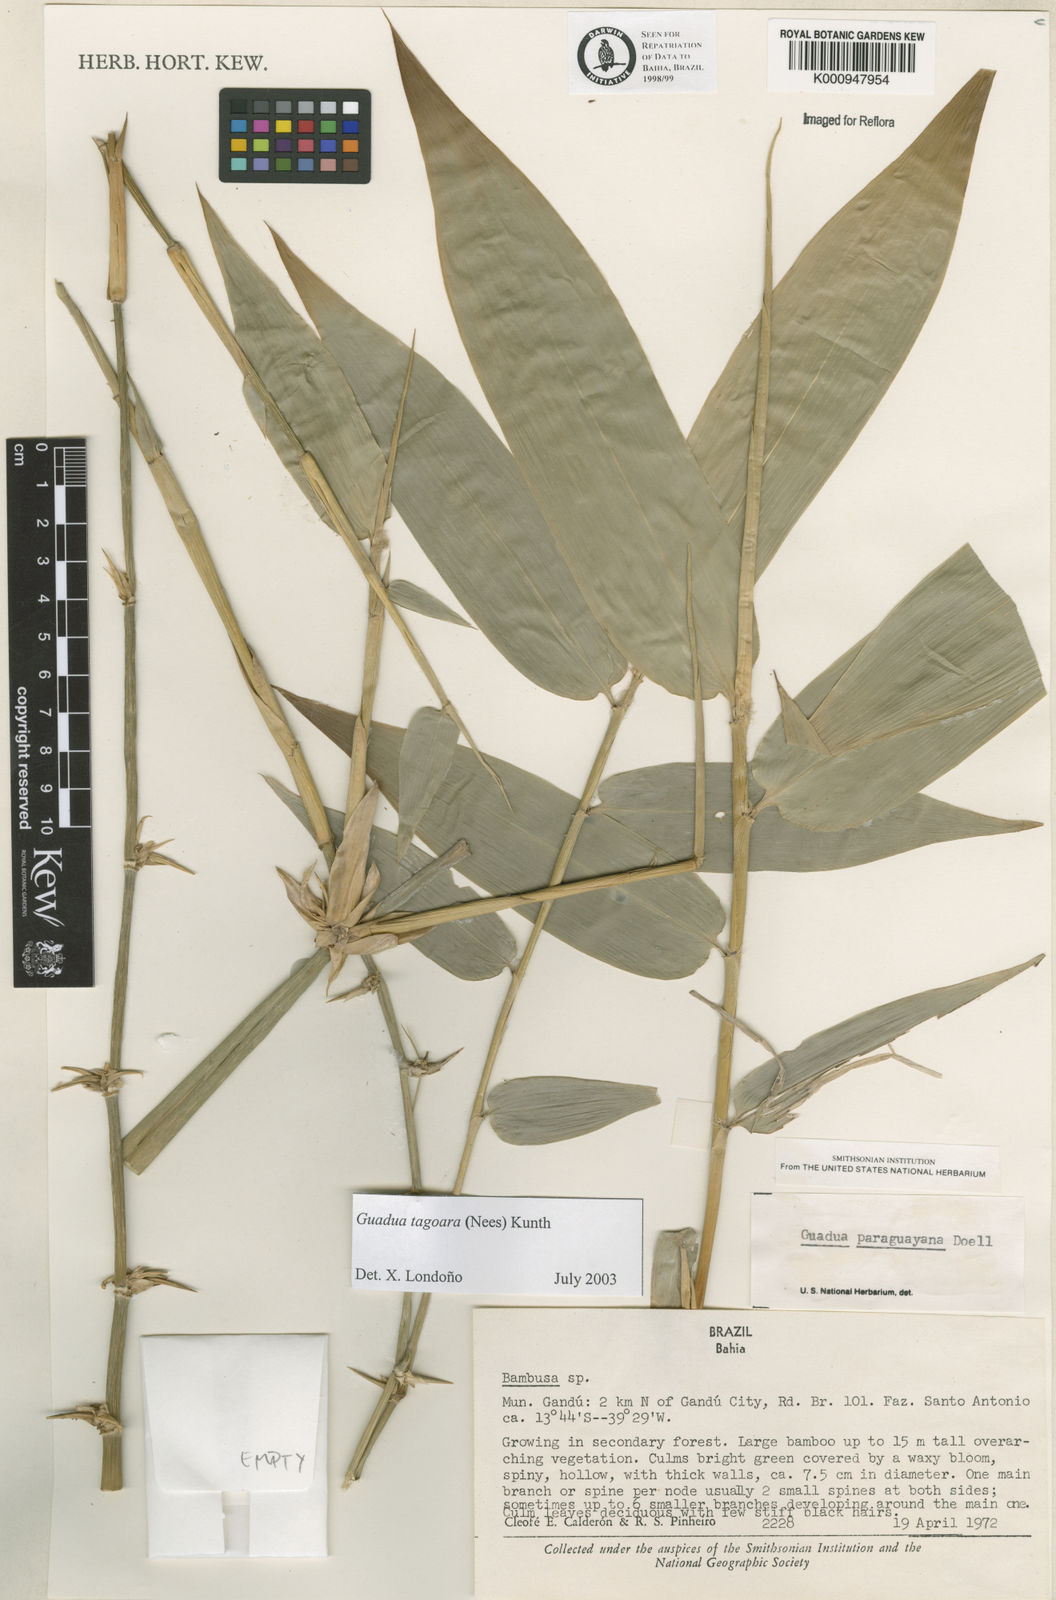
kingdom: Plantae
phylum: Tracheophyta
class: Liliopsida
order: Poales
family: Poaceae
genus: Guadua
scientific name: Guadua tagoara
